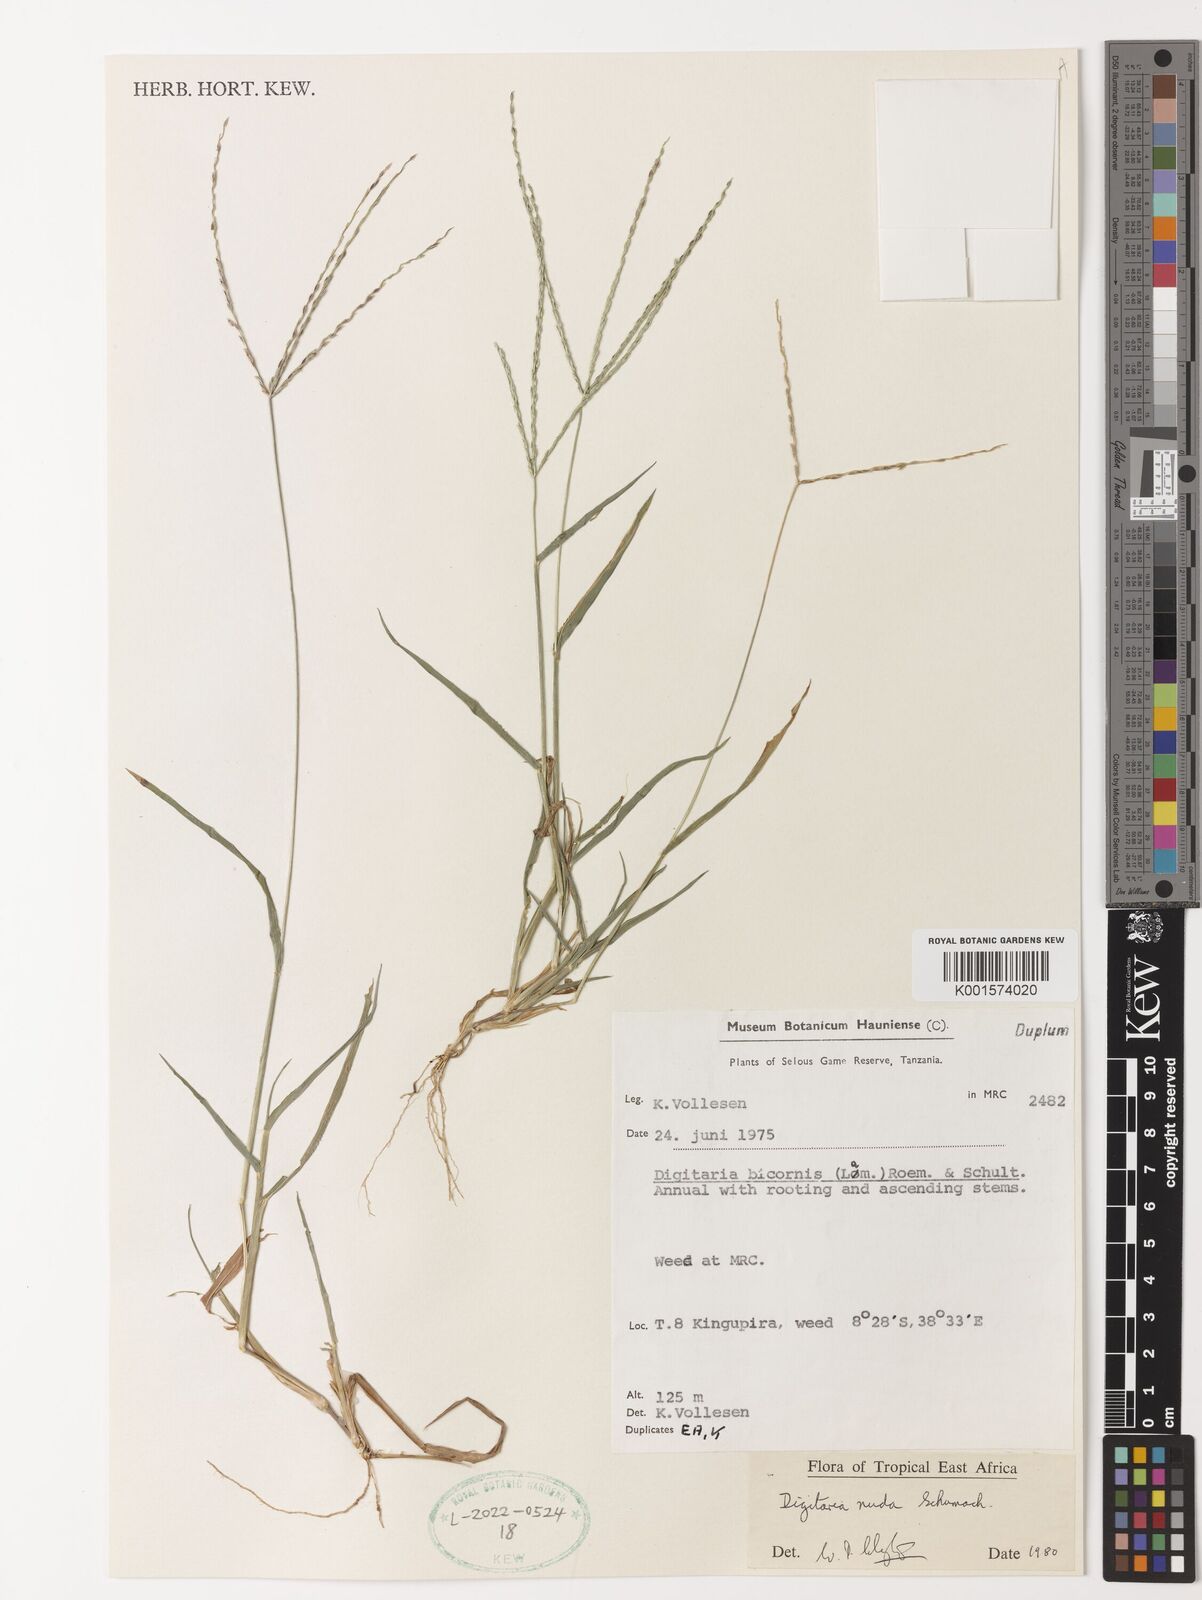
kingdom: Plantae
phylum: Tracheophyta
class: Liliopsida
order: Poales
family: Poaceae
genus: Digitaria
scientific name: Digitaria nuda
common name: Naked crabgrass
